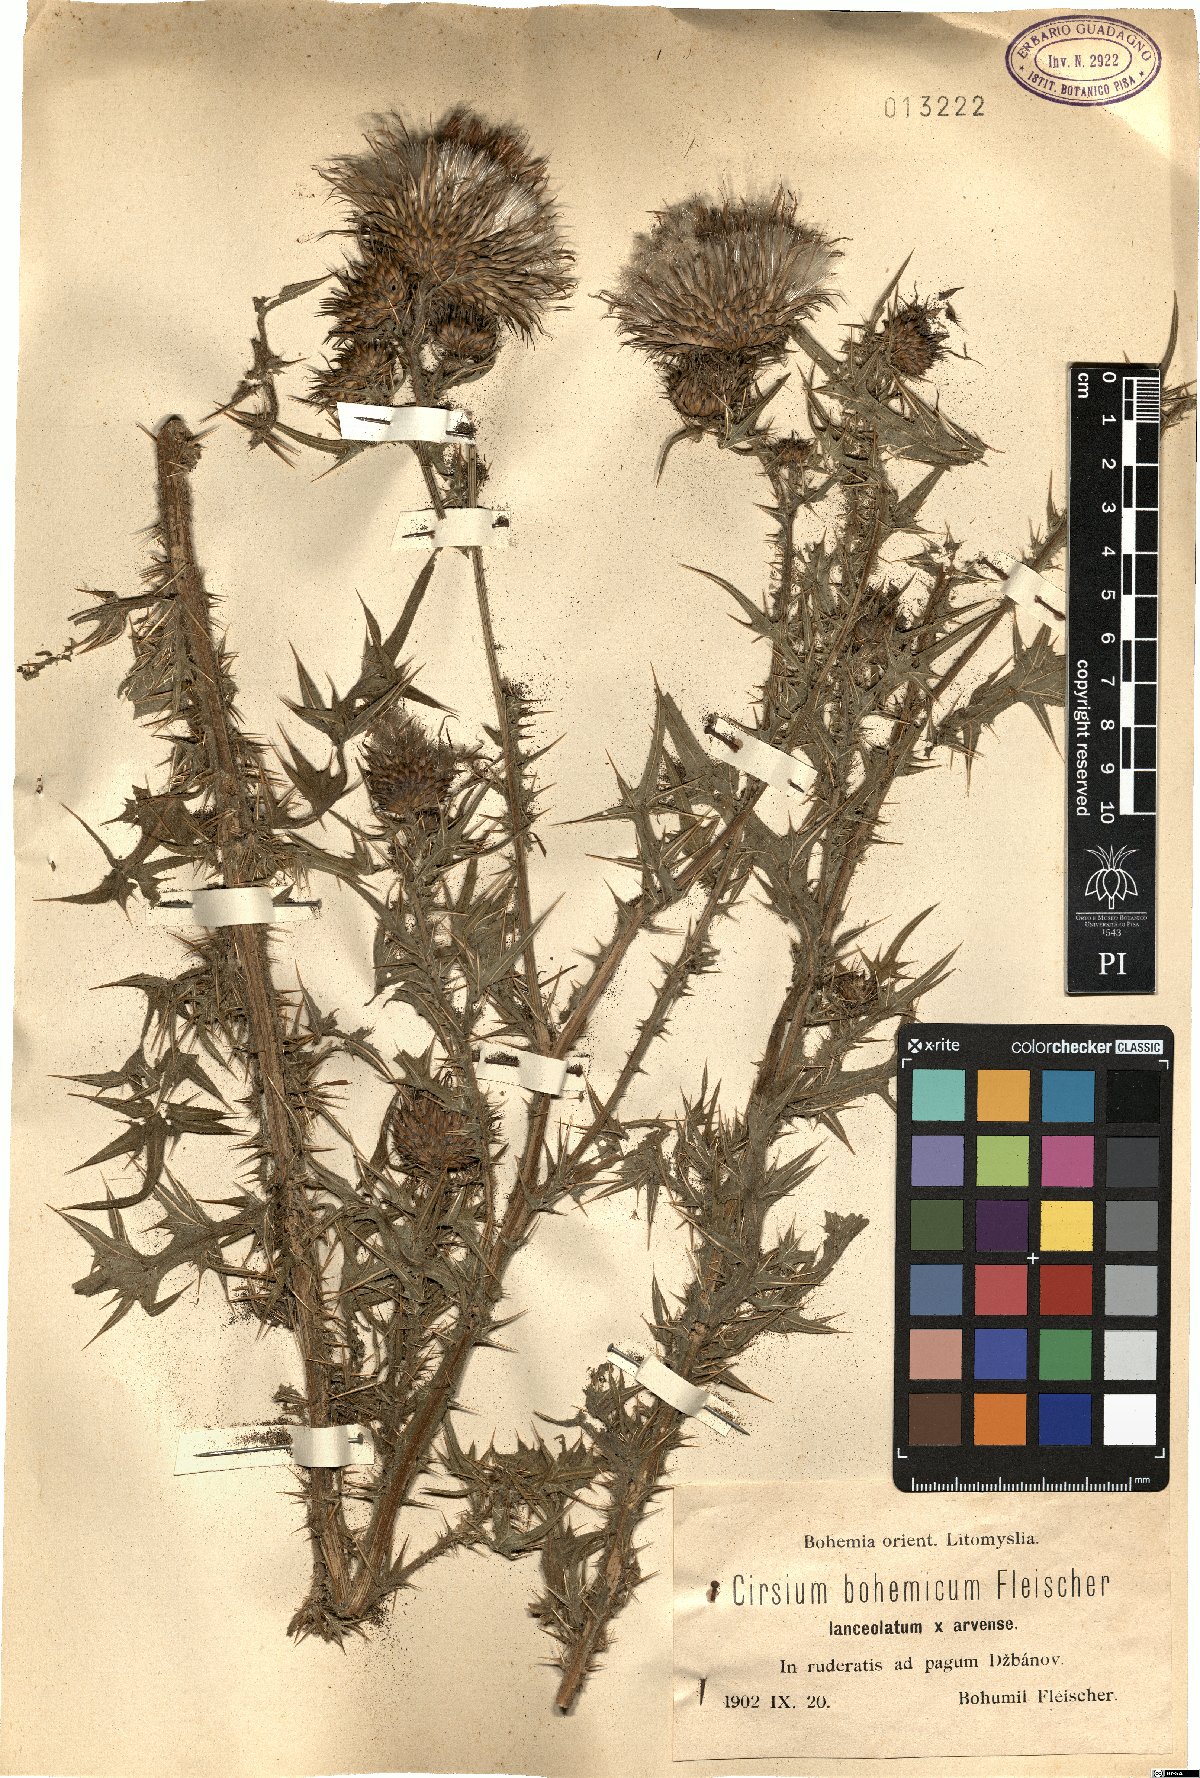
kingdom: Plantae
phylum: Tracheophyta
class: Magnoliopsida
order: Asterales
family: Asteraceae
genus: Cirsium
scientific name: Cirsium bohemicum
